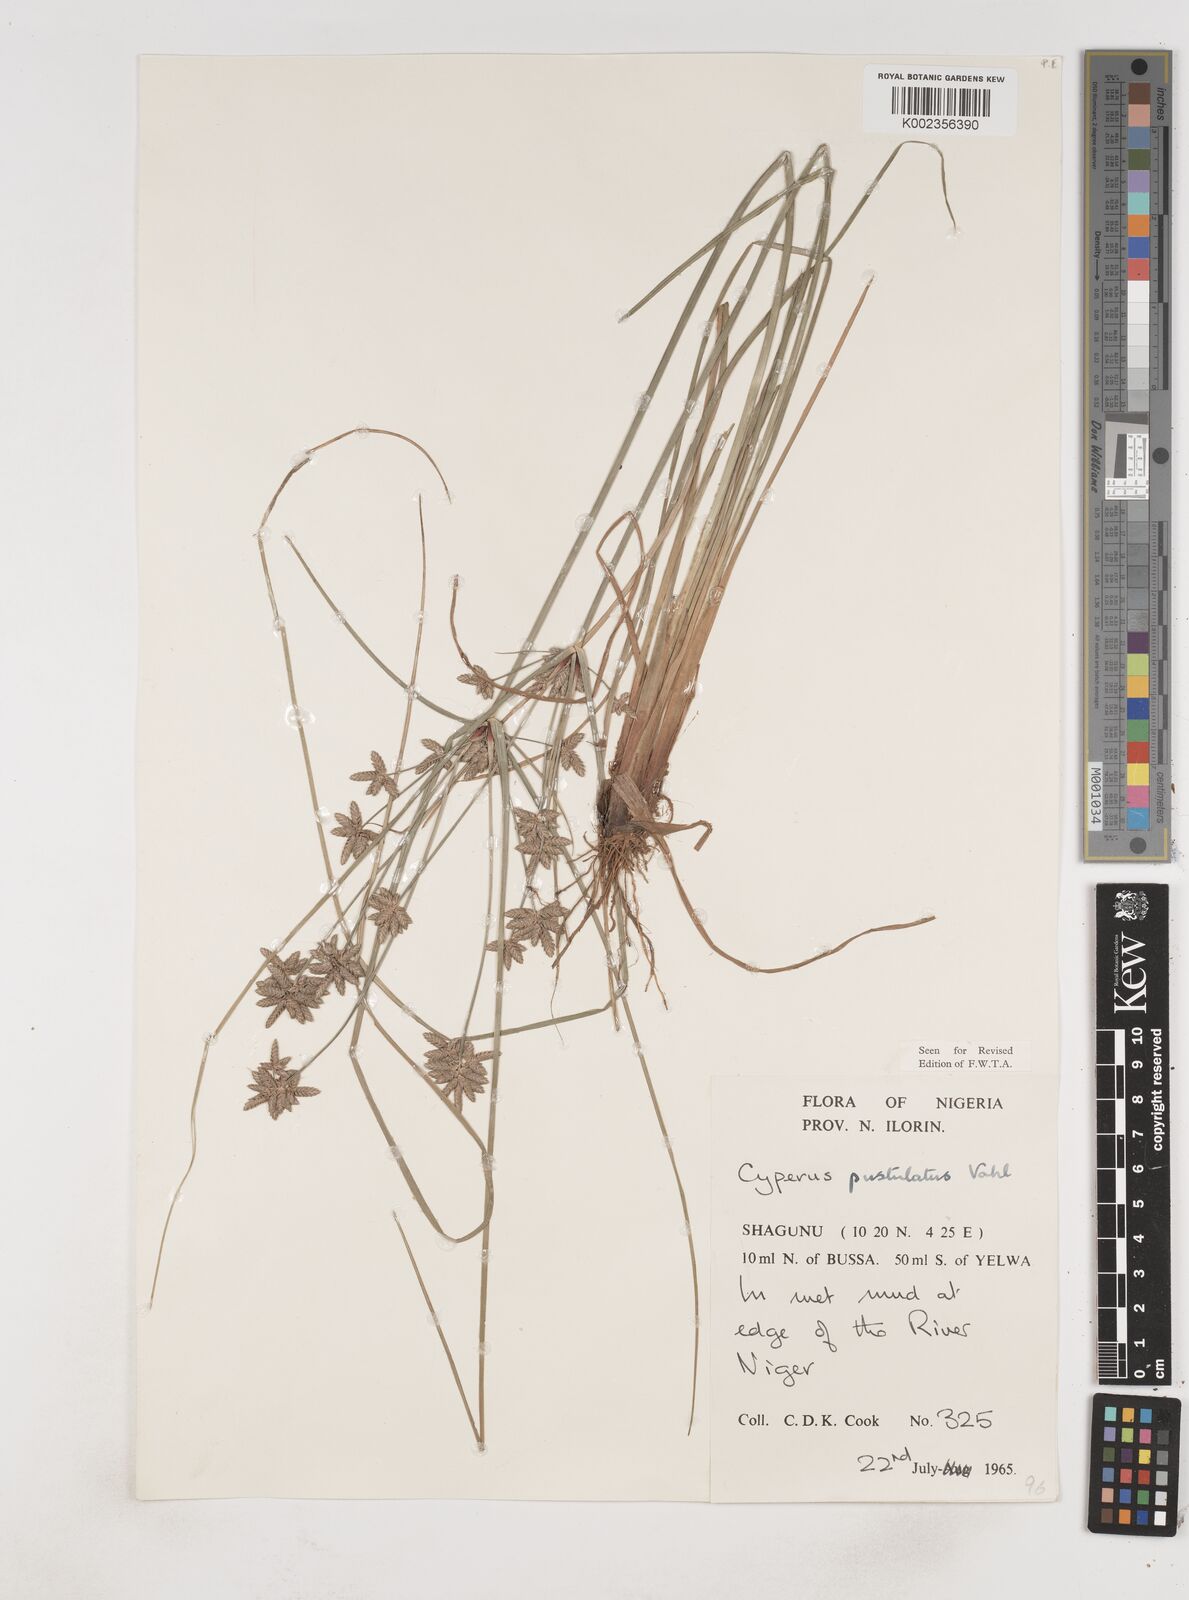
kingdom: Plantae
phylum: Tracheophyta
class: Liliopsida
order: Poales
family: Cyperaceae
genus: Cyperus
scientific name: Cyperus pustulatus
